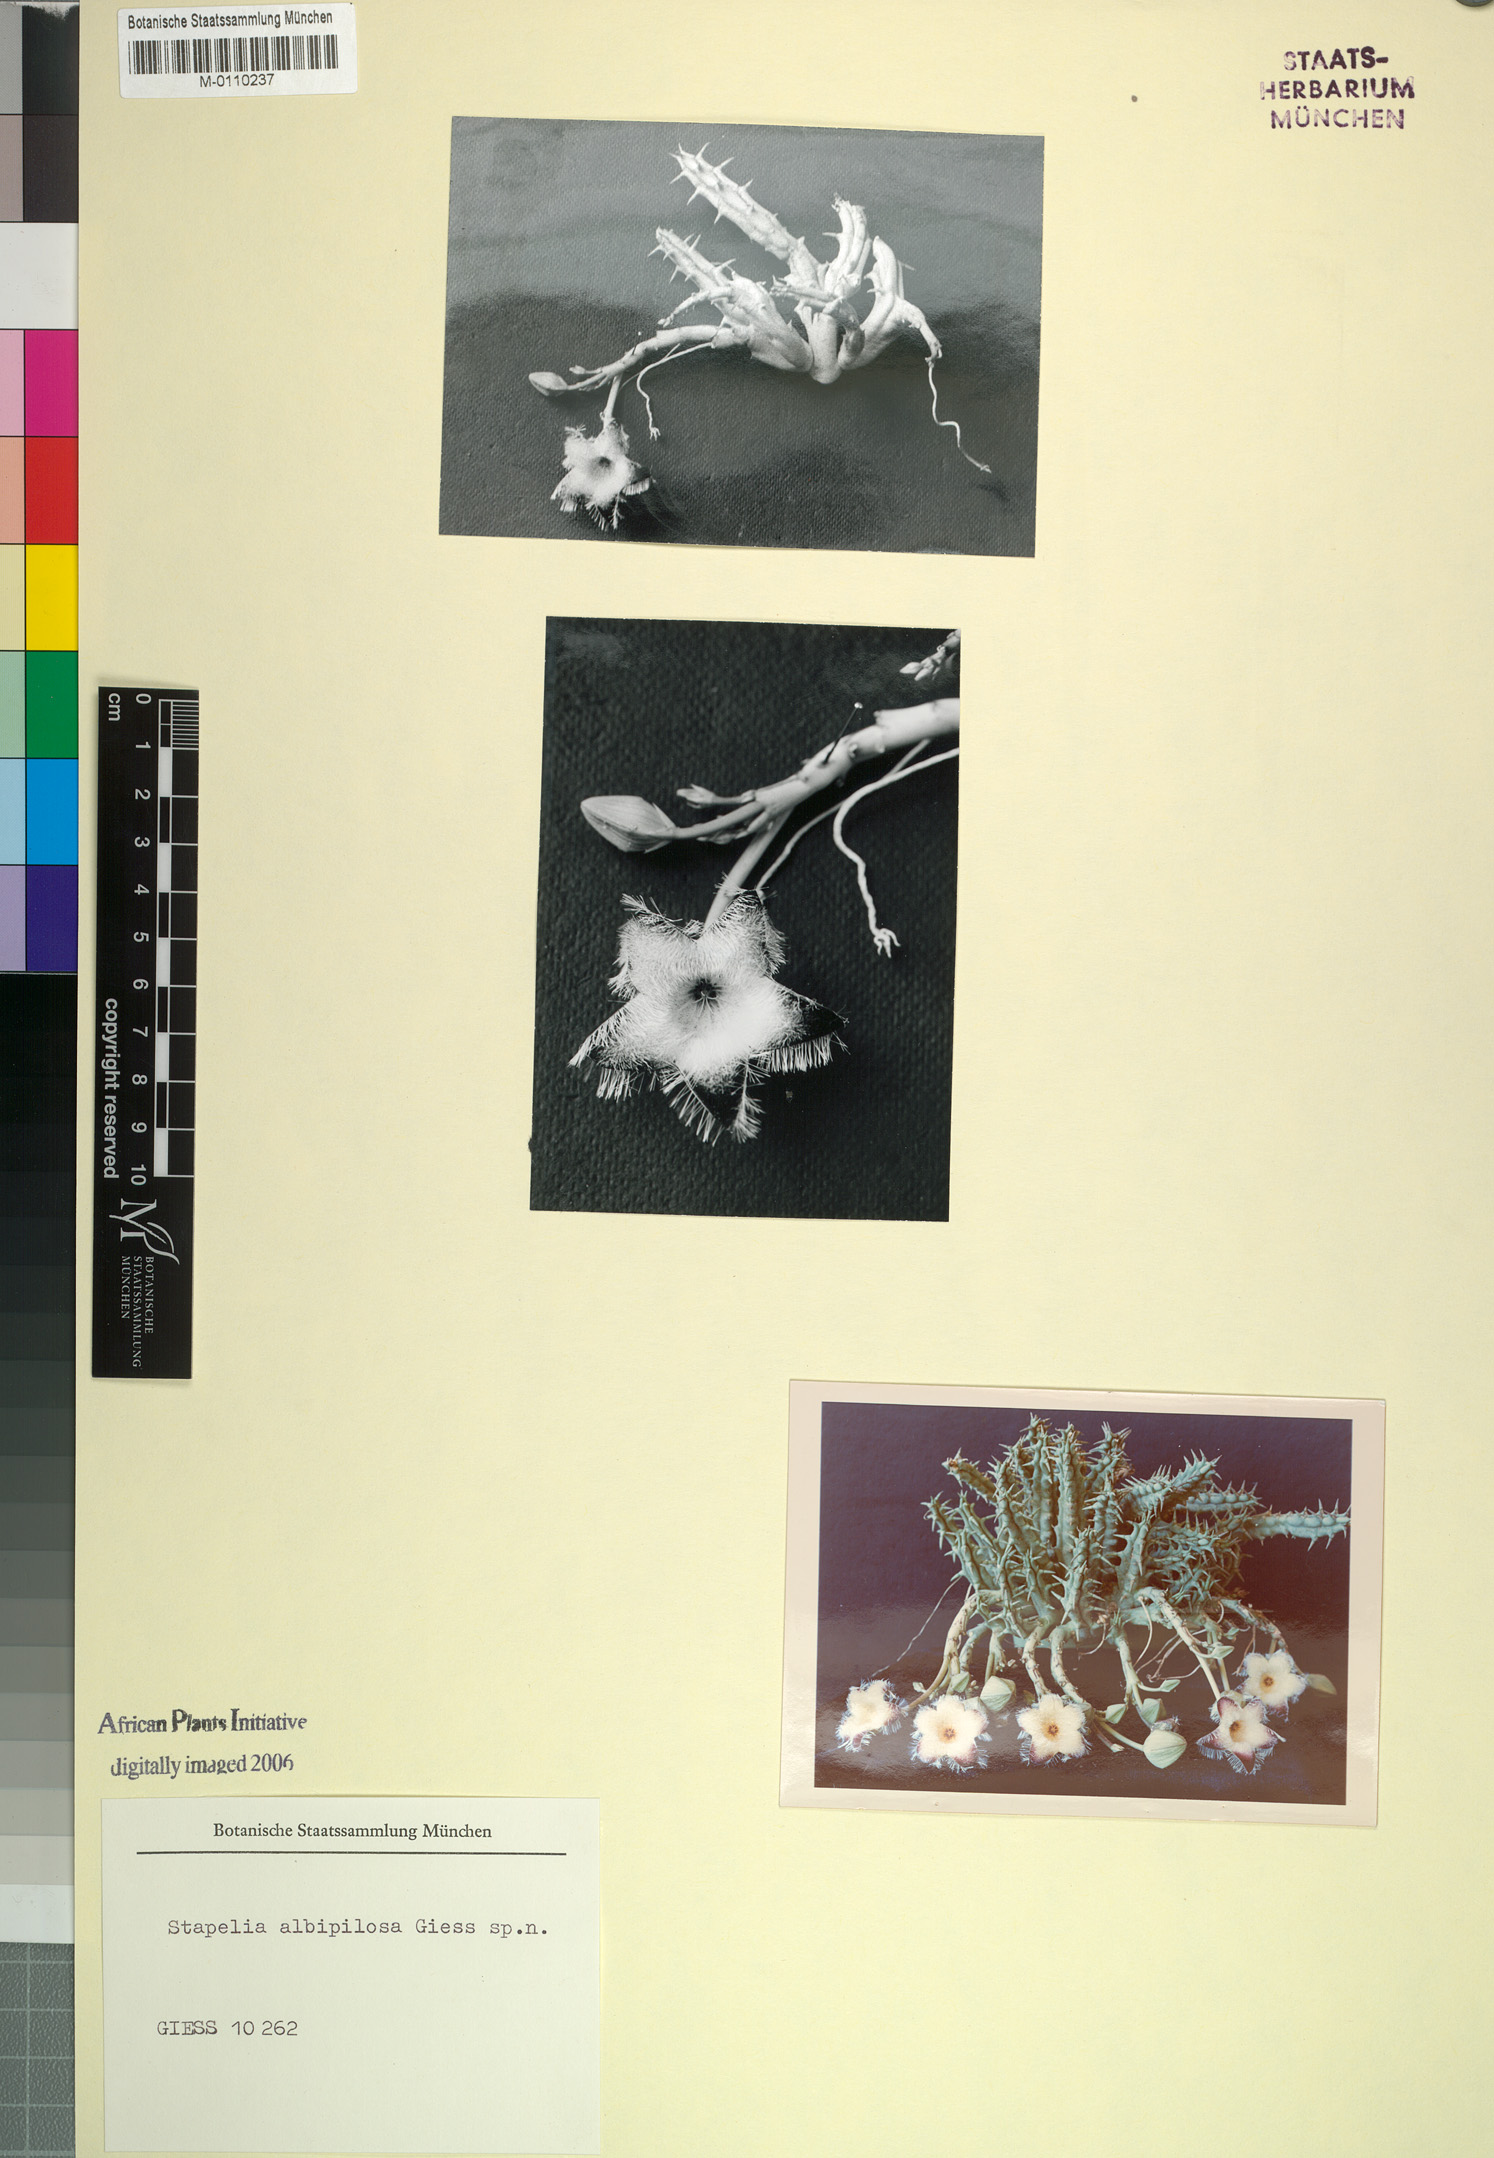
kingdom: Plantae
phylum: Tracheophyta
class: Magnoliopsida
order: Gentianales
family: Apocynaceae
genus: Ceropegia
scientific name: Ceropegia marientalensis
